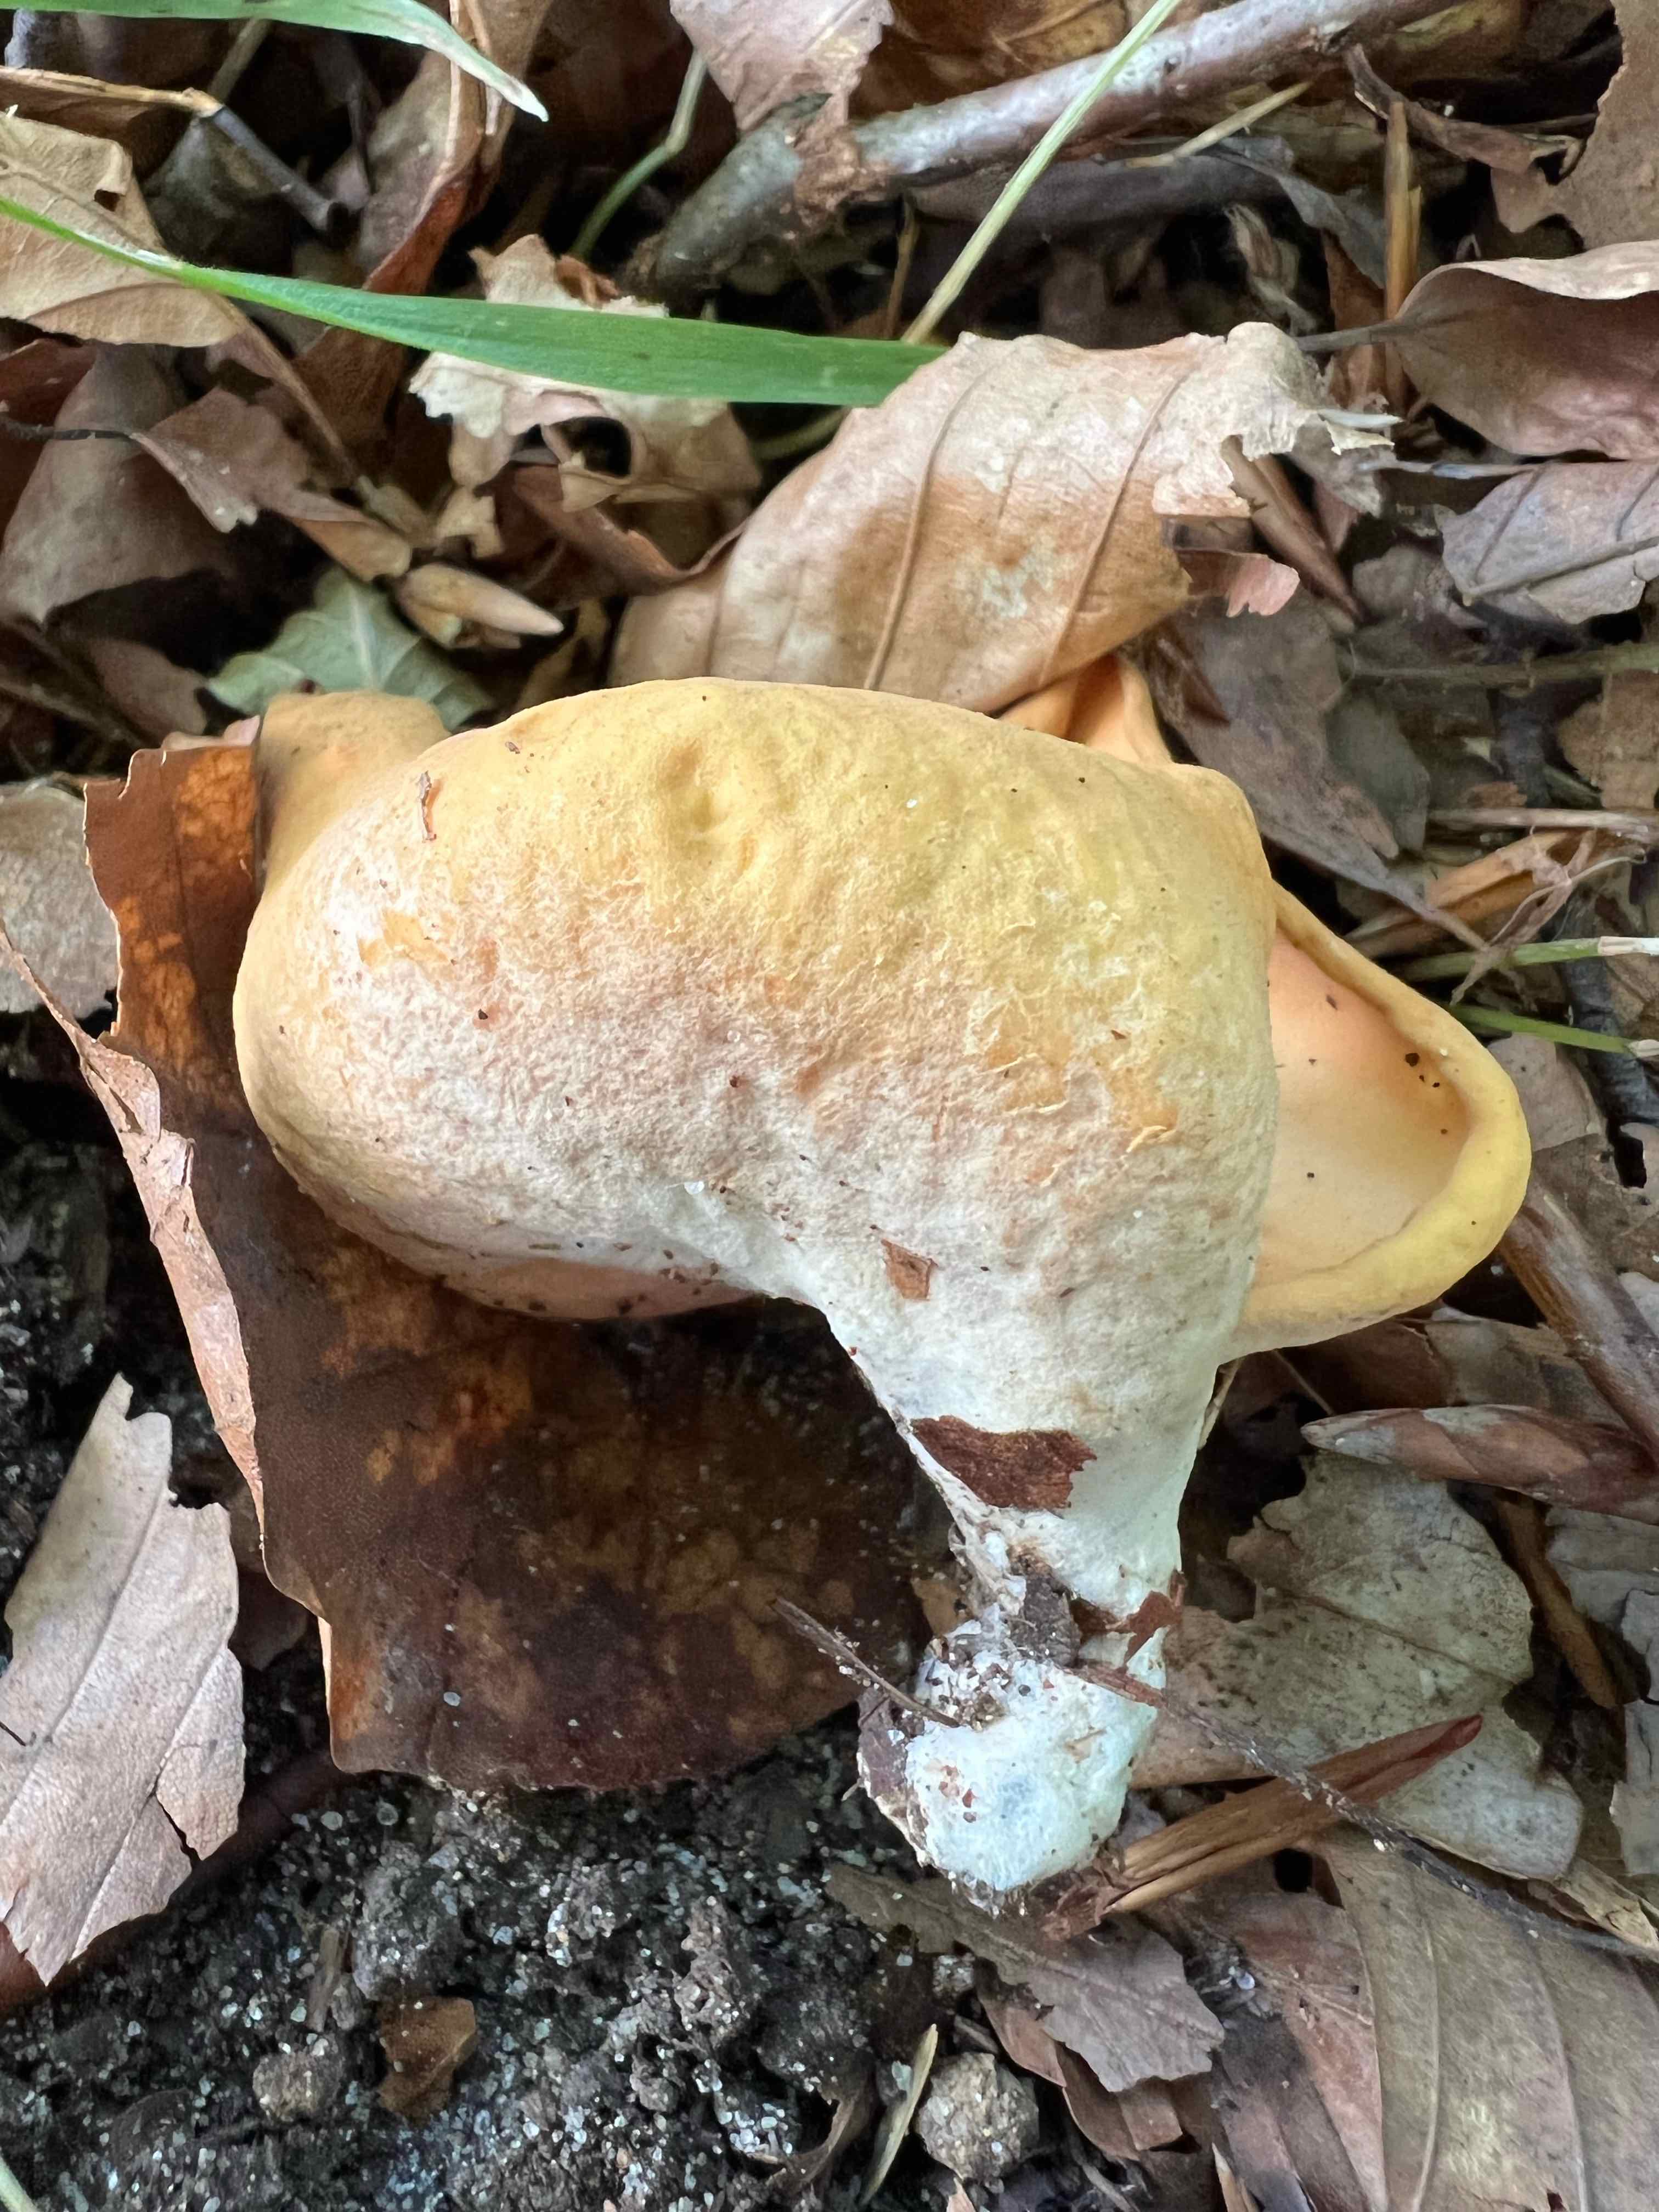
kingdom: Fungi
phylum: Ascomycota
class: Pezizomycetes
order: Pezizales
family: Otideaceae
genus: Otidea
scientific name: Otidea onotica
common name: æsel-ørebæger
